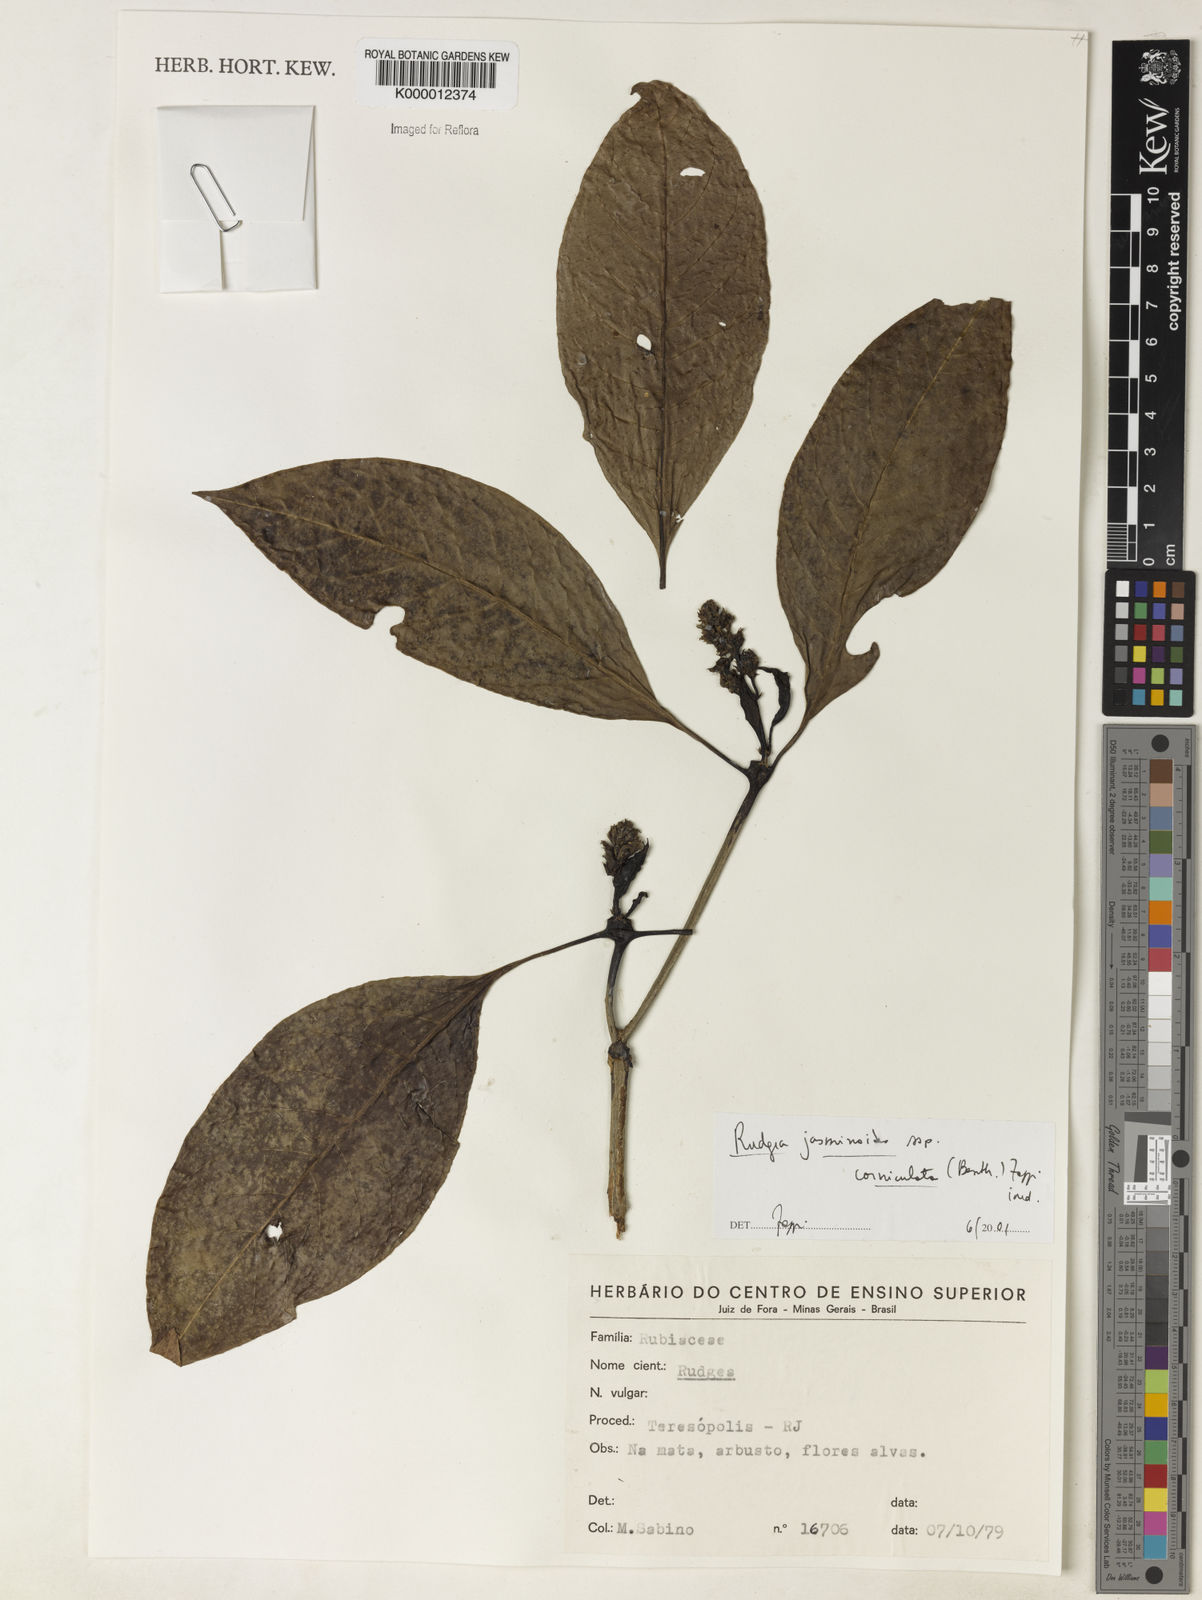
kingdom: Plantae
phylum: Tracheophyta
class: Magnoliopsida
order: Gentianales
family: Rubiaceae
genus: Rudgea
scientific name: Rudgea jasminoides
